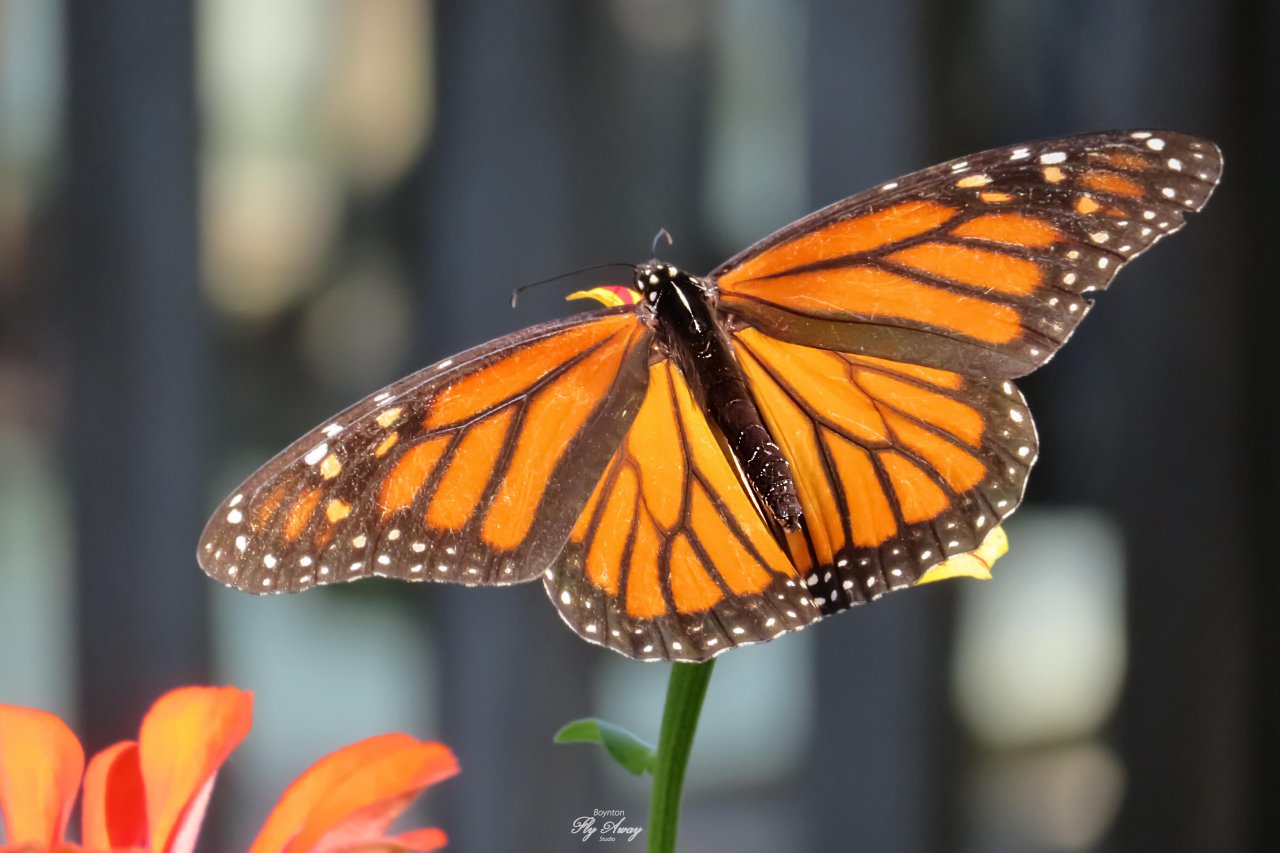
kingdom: Animalia
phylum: Arthropoda
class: Insecta
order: Lepidoptera
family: Nymphalidae
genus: Danaus
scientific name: Danaus plexippus
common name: Monarch
